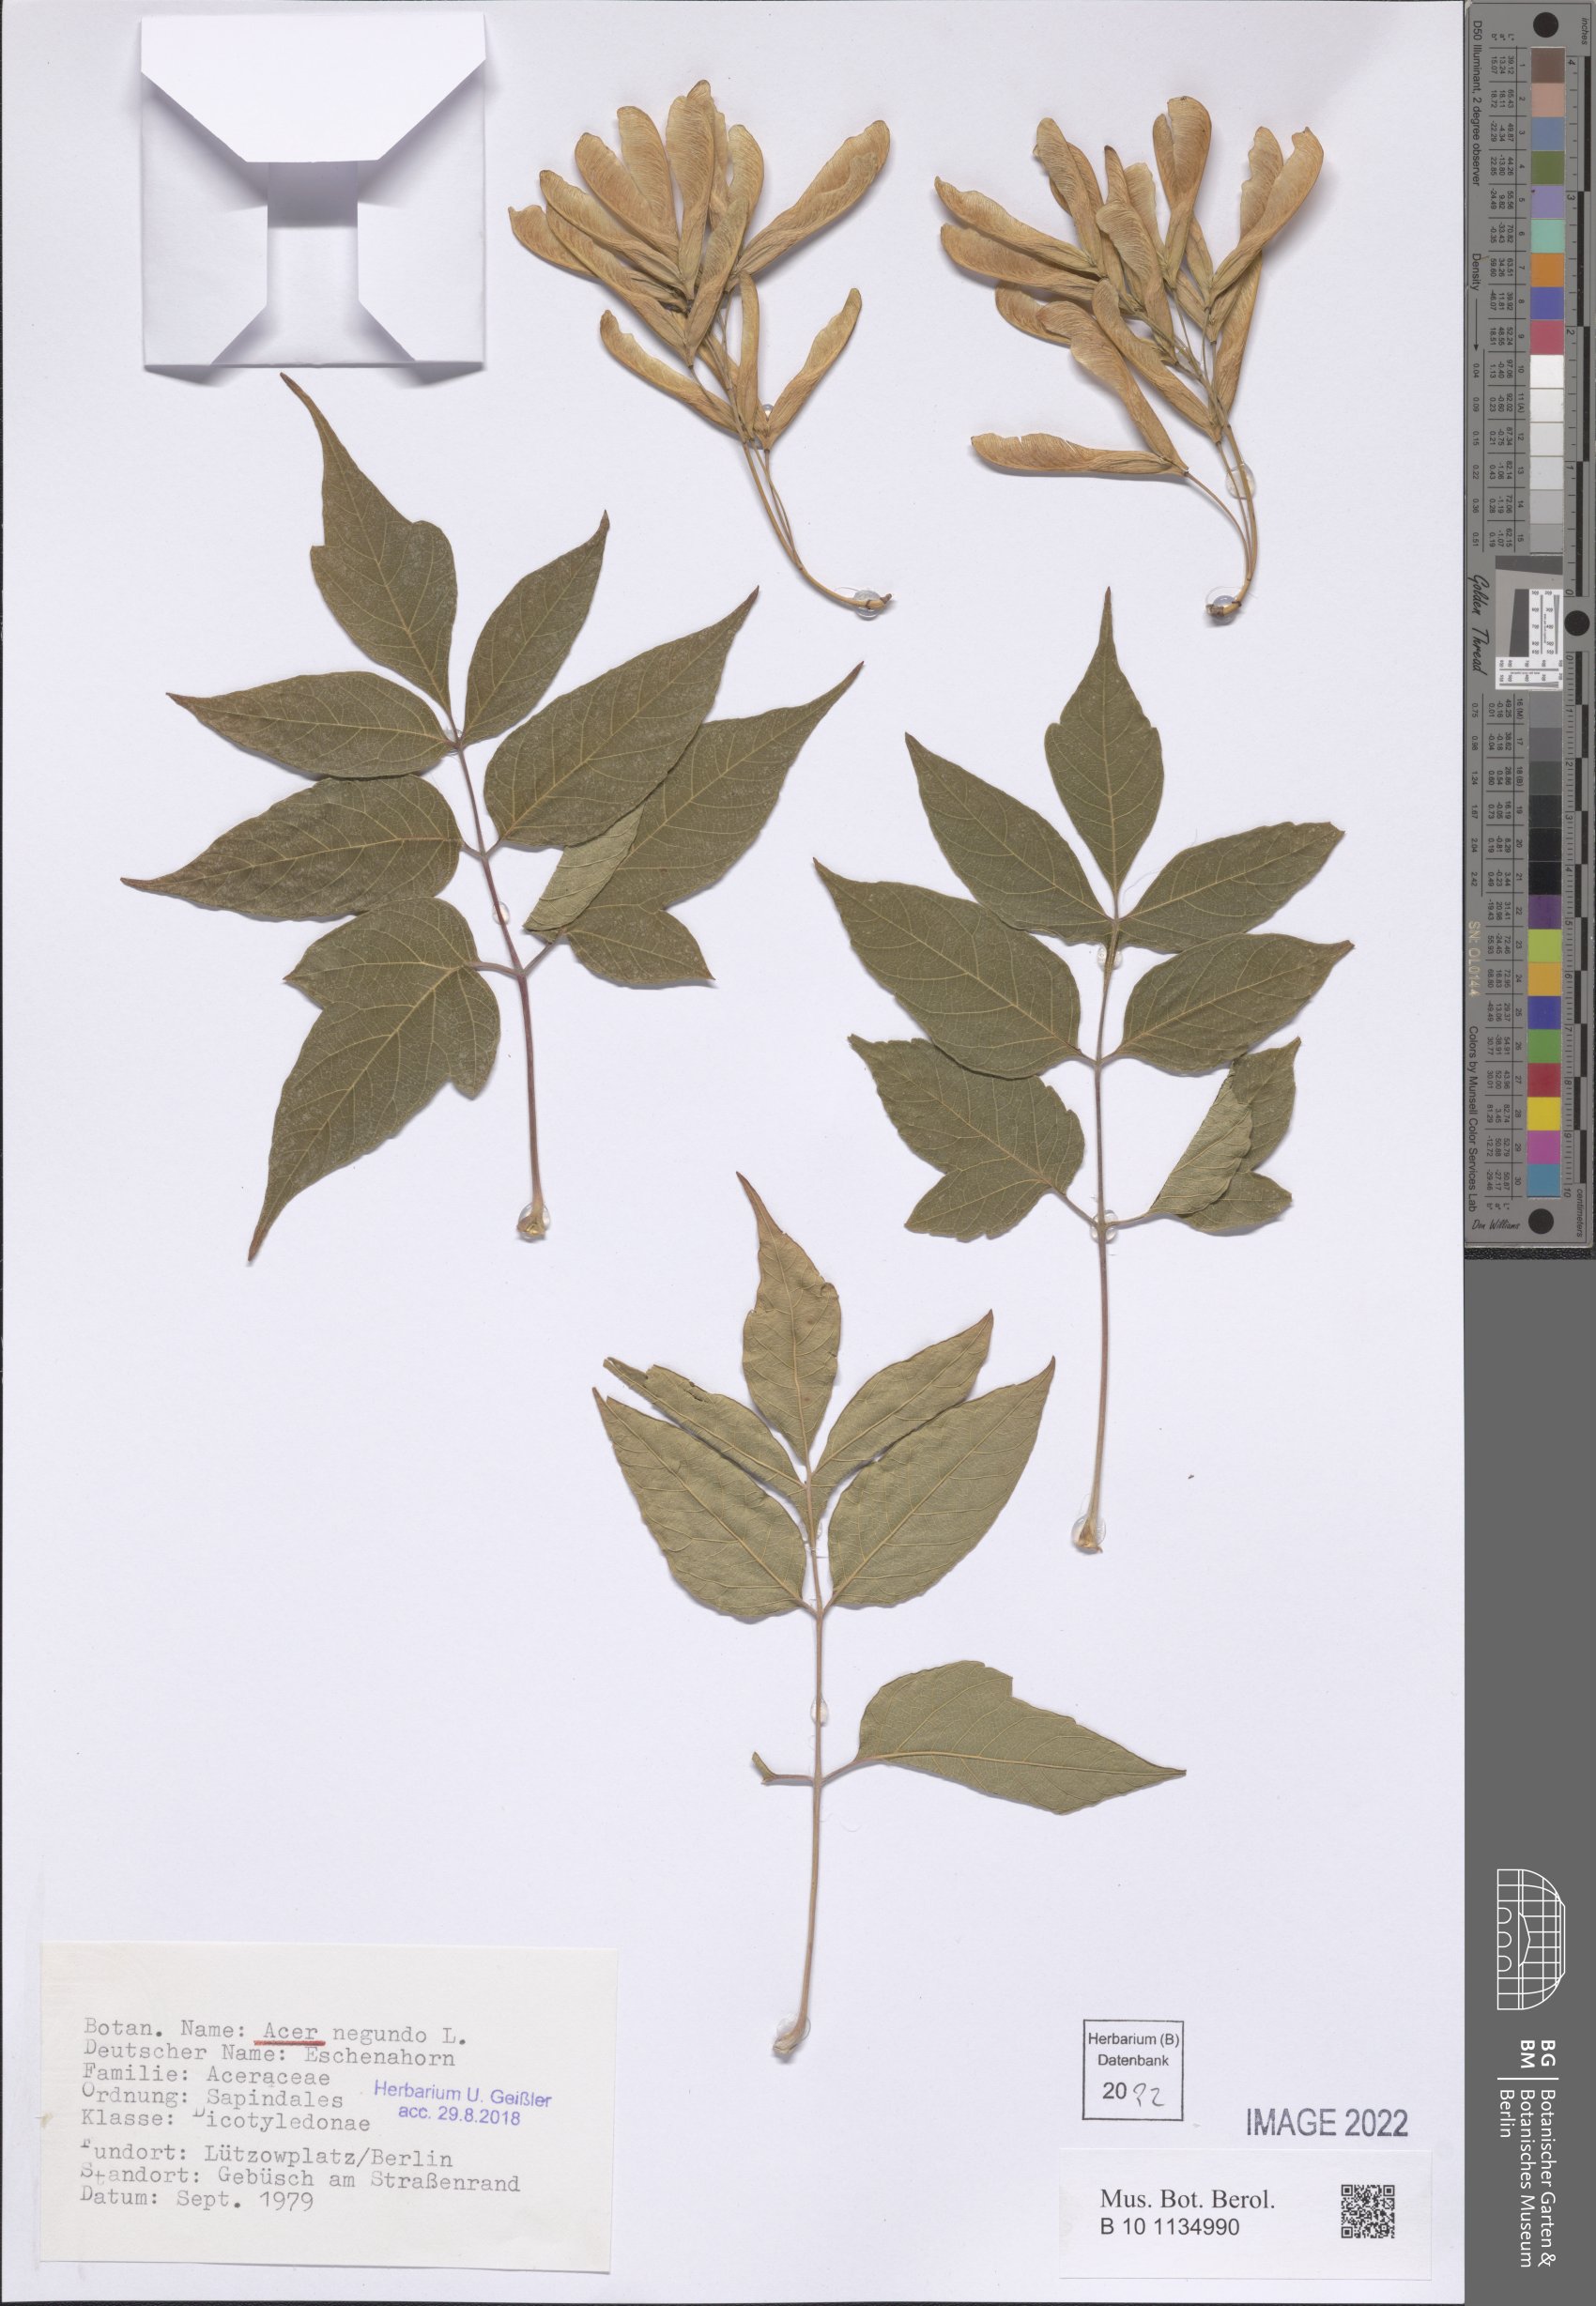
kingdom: Plantae
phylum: Tracheophyta
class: Magnoliopsida
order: Sapindales
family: Sapindaceae
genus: Acer
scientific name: Acer negundo
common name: Ashleaf maple
